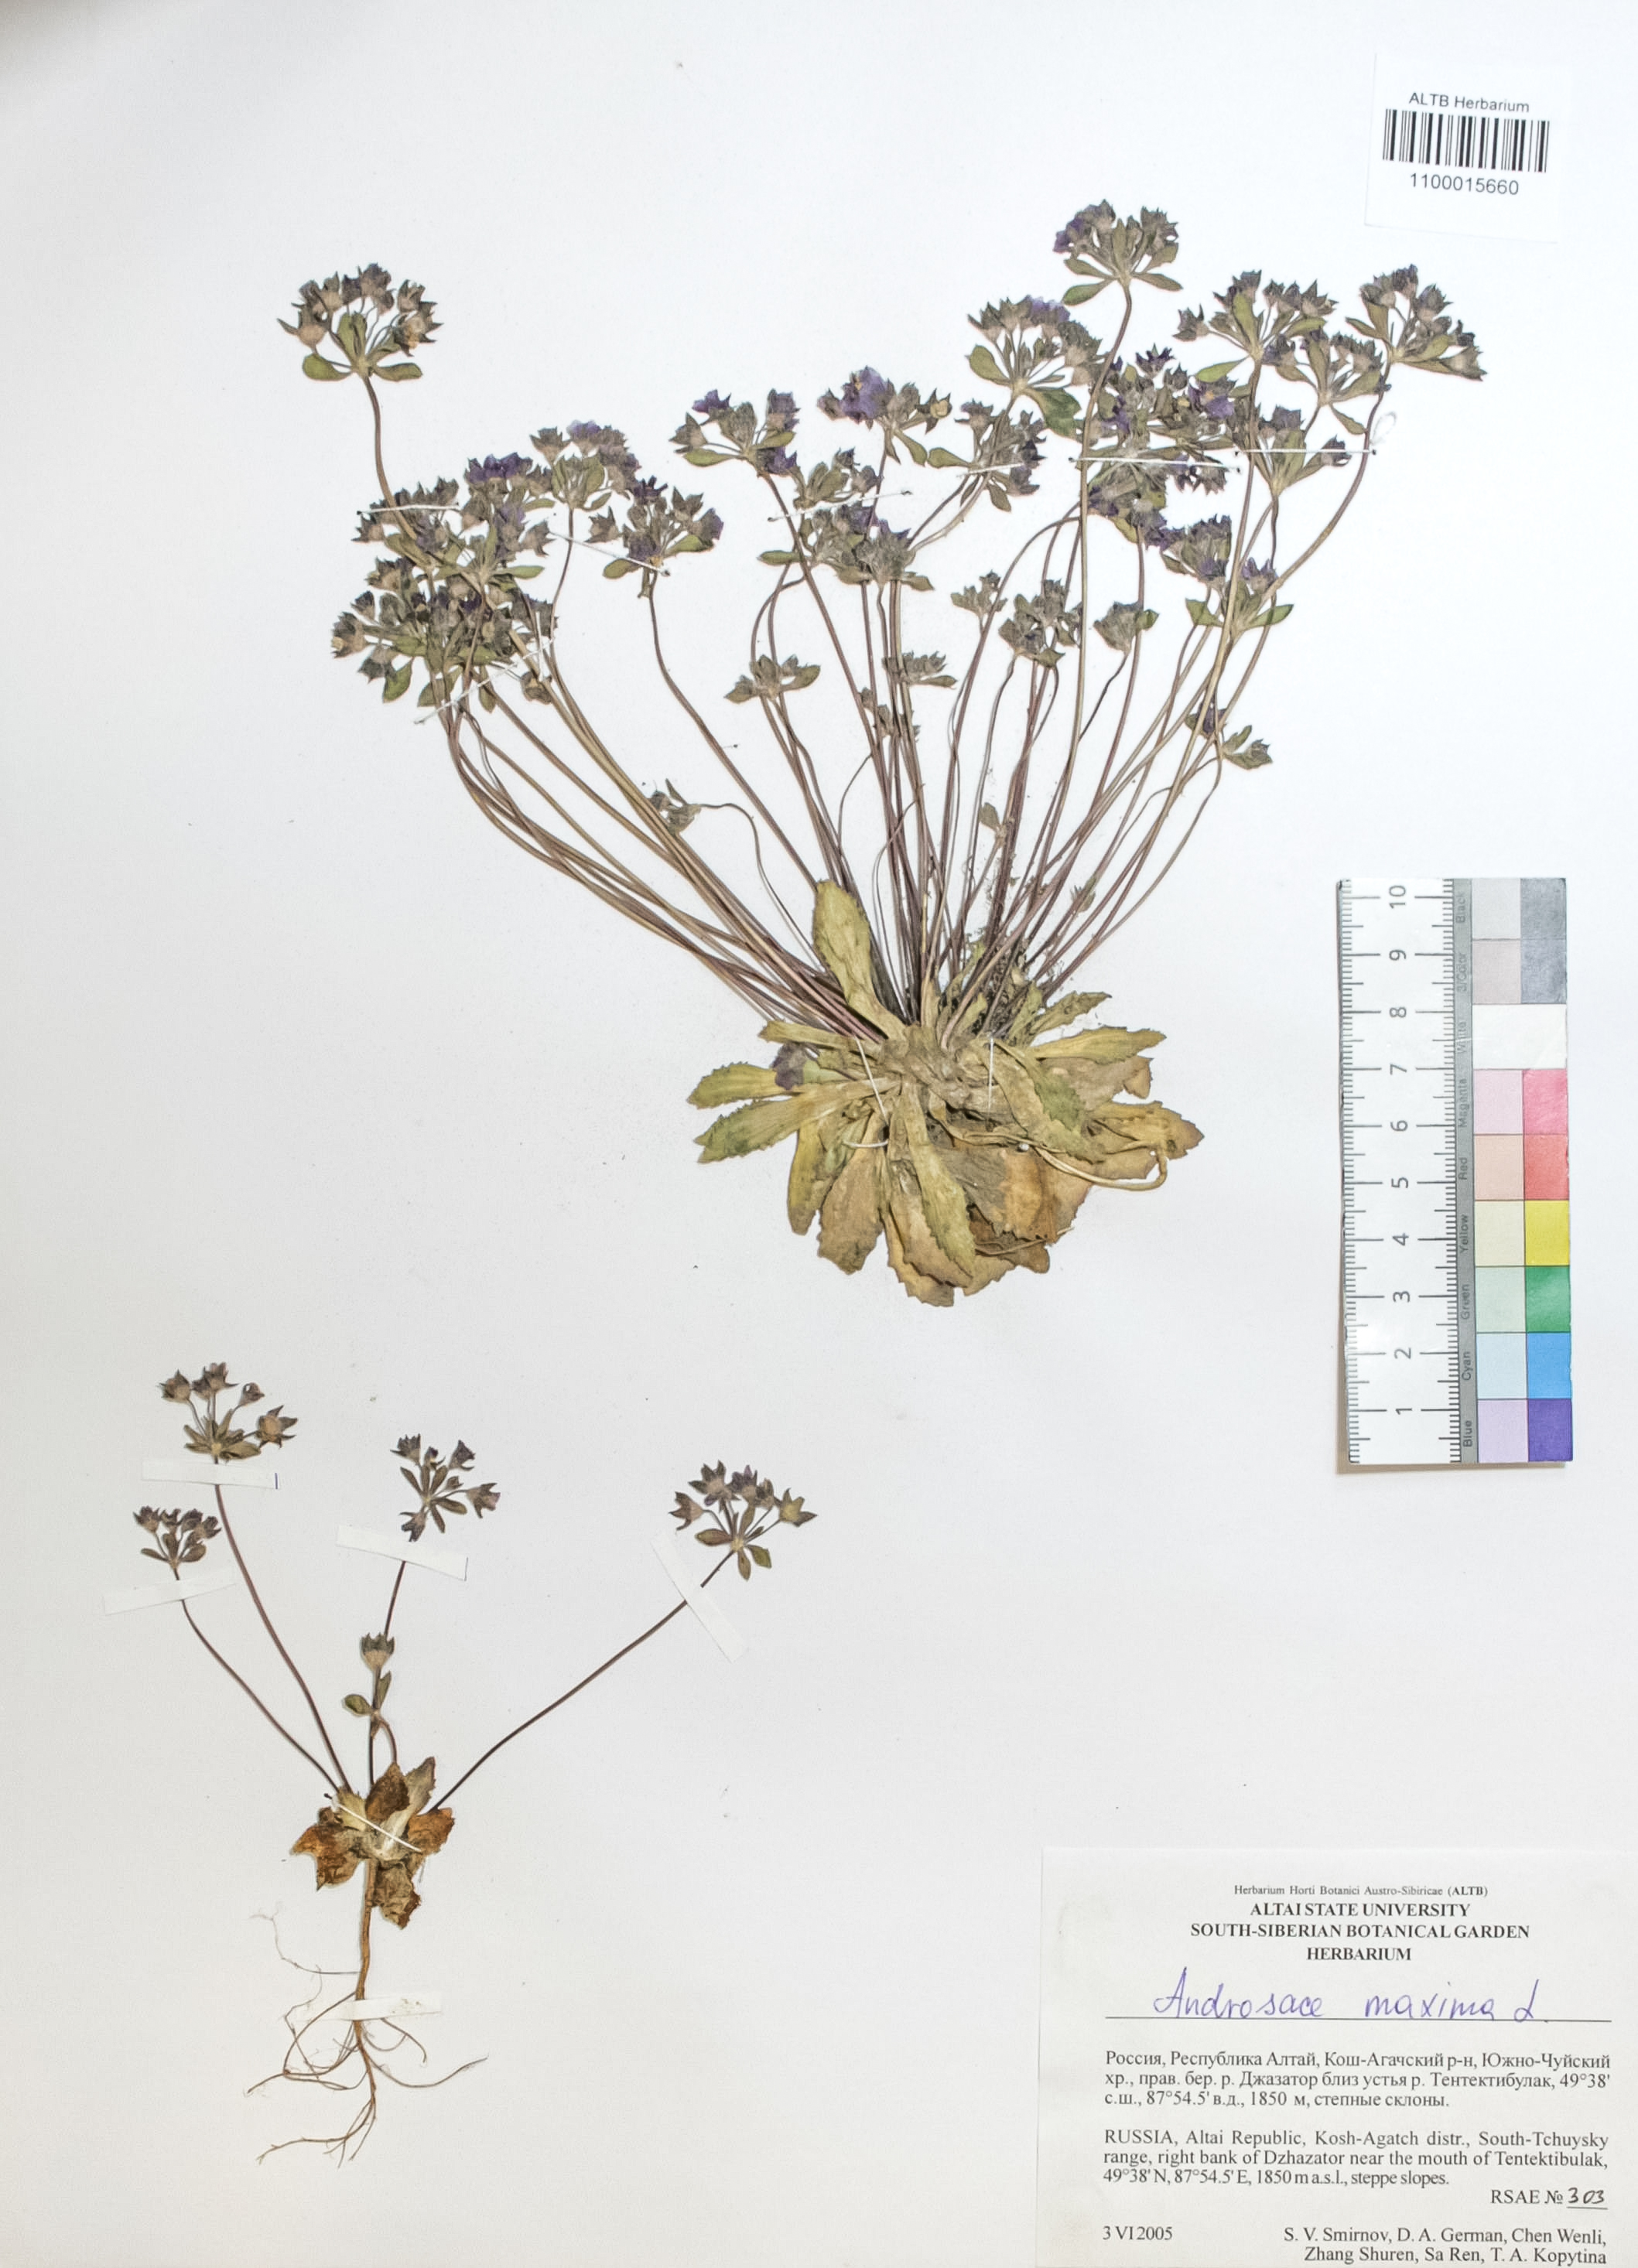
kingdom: Plantae
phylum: Tracheophyta
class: Magnoliopsida
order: Ericales
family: Primulaceae
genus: Androsace
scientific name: Androsace maxima
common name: Annual androsace
